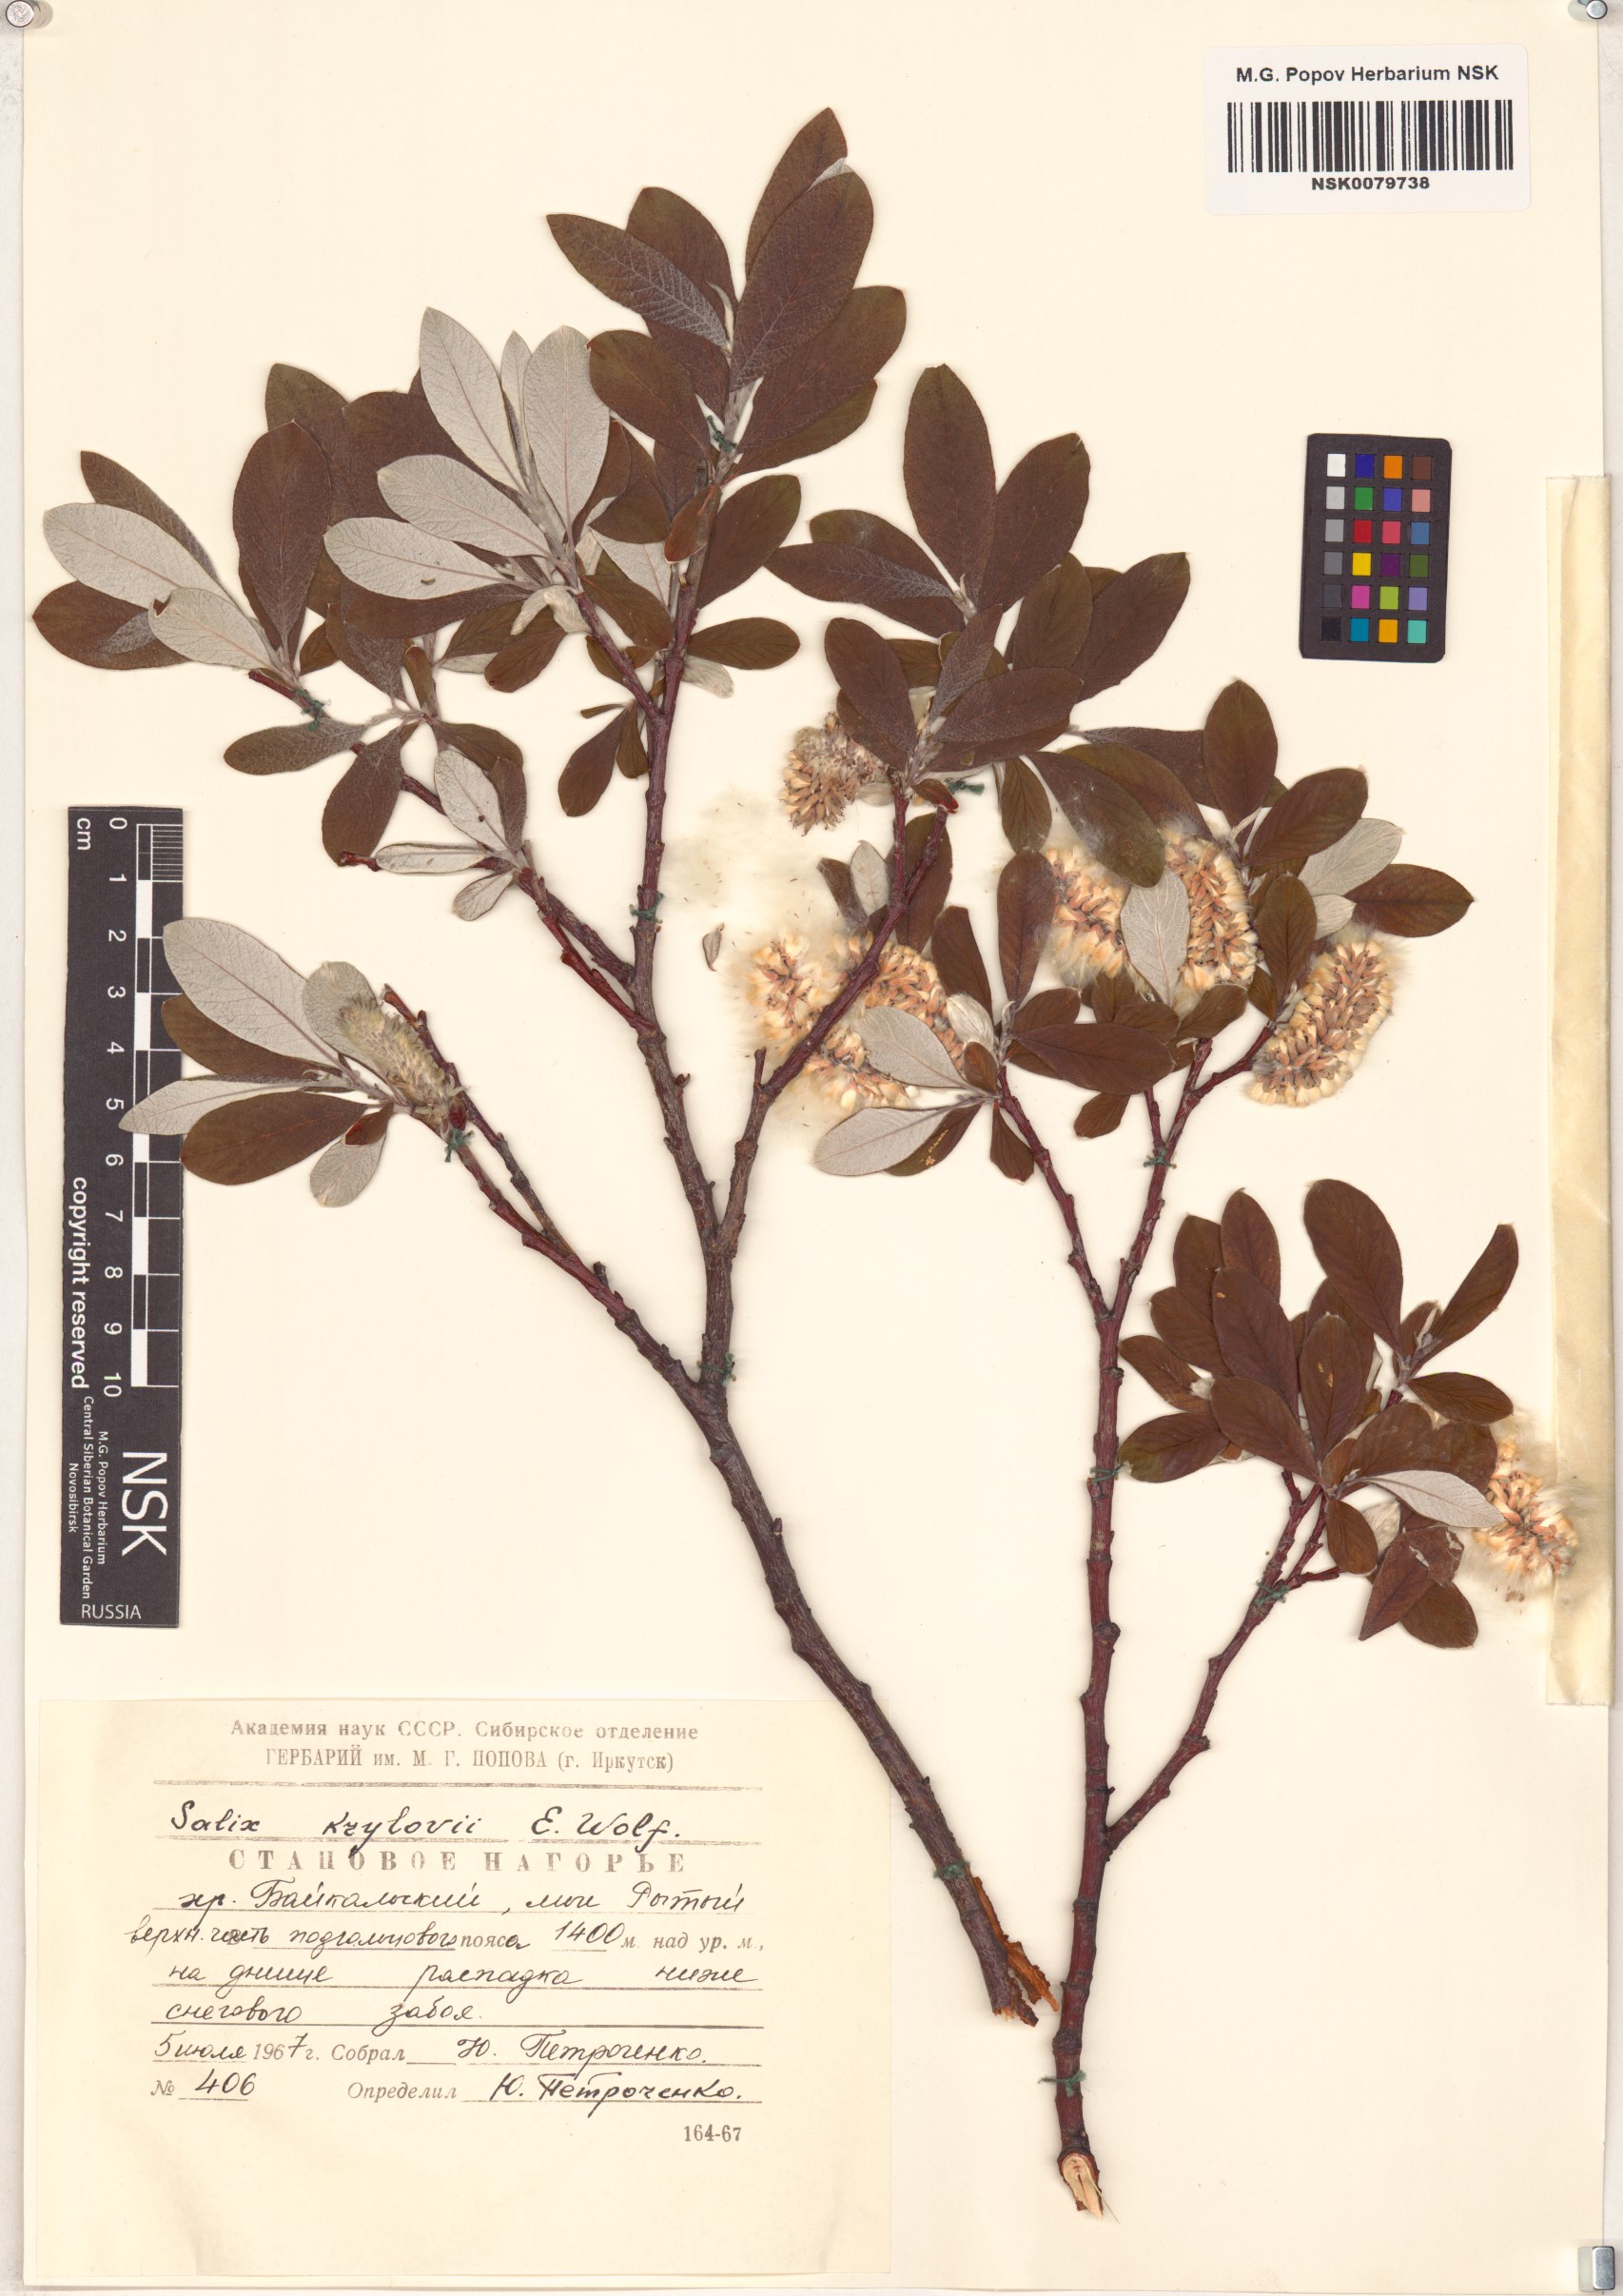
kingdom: Plantae
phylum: Tracheophyta
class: Magnoliopsida
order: Malpighiales
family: Salicaceae
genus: Salix
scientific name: Salix krylovii
